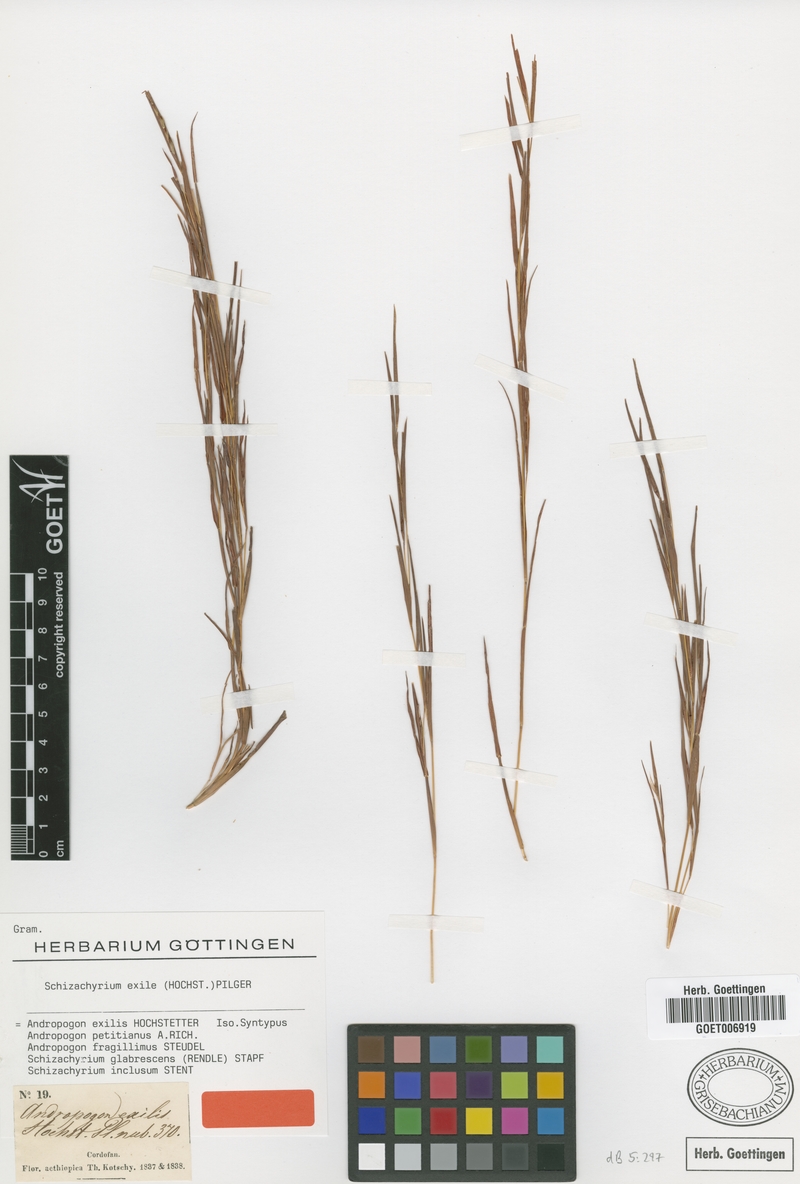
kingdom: Plantae
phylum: Tracheophyta
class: Liliopsida
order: Poales
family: Poaceae
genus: Schizachyrium
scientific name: Schizachyrium exile
